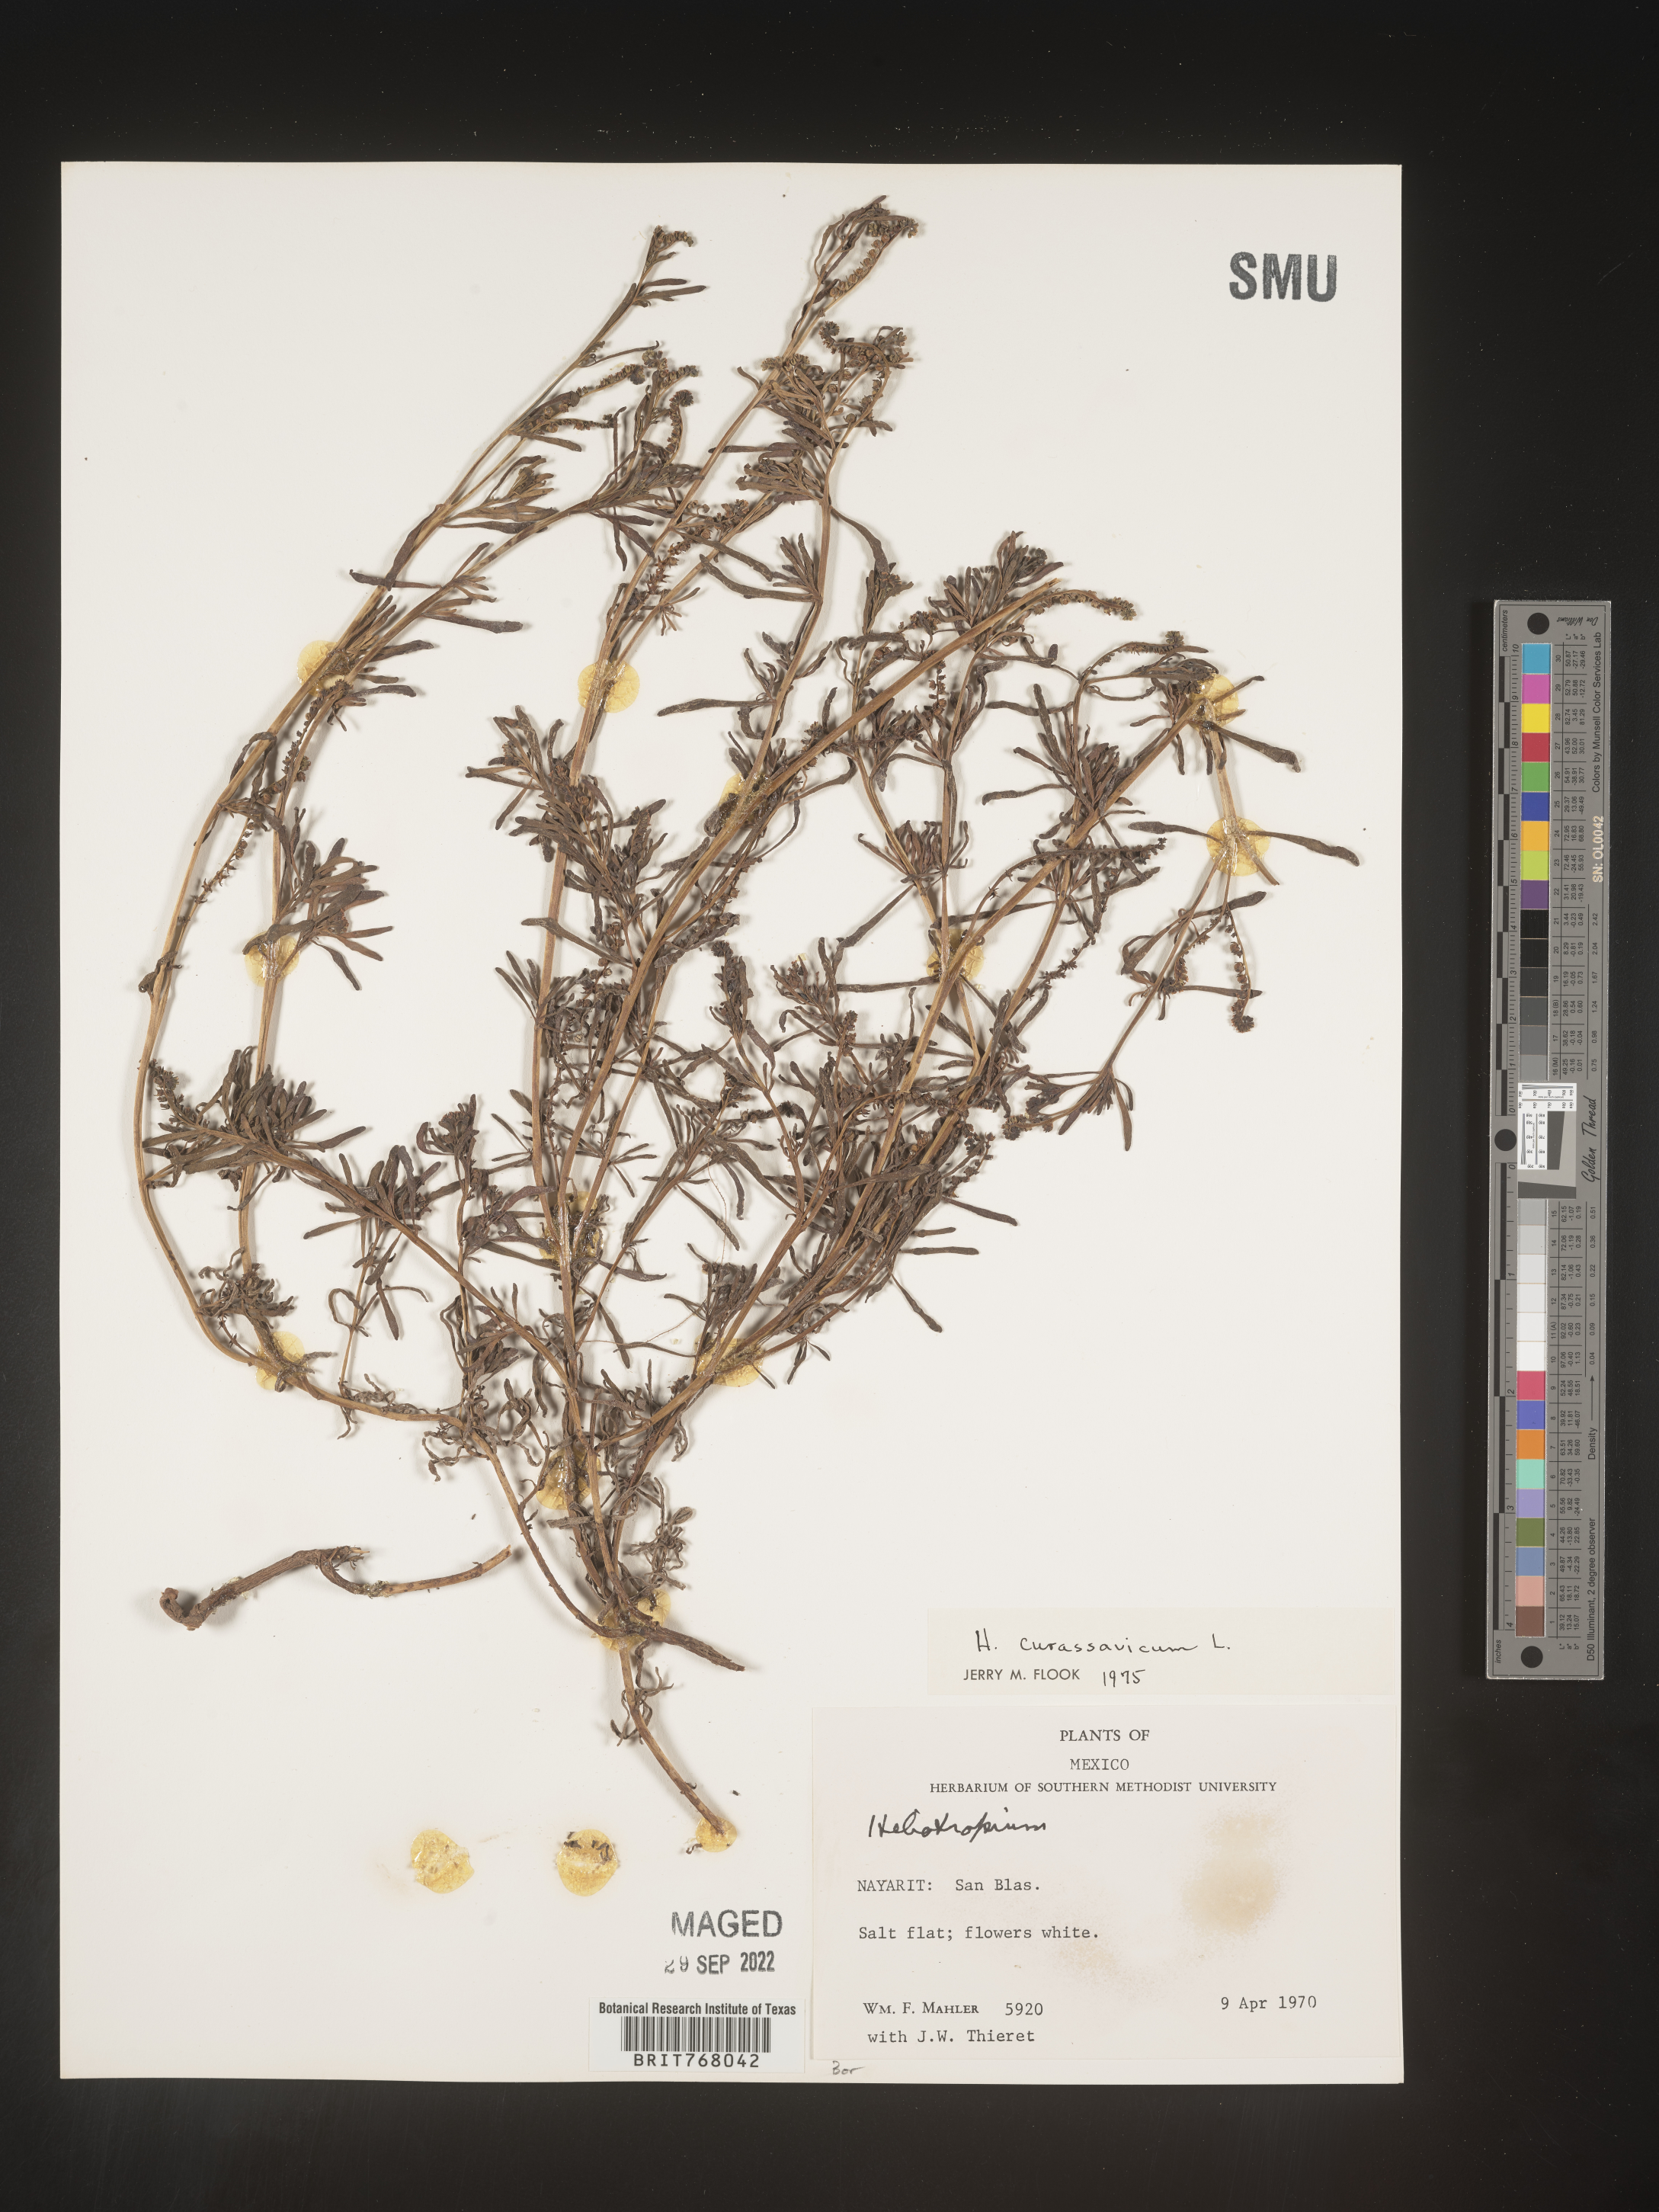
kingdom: Plantae
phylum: Tracheophyta
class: Magnoliopsida
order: Boraginales
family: Heliotropiaceae
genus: Heliotropium
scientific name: Heliotropium curassavicum
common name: Seaside heliotrope
